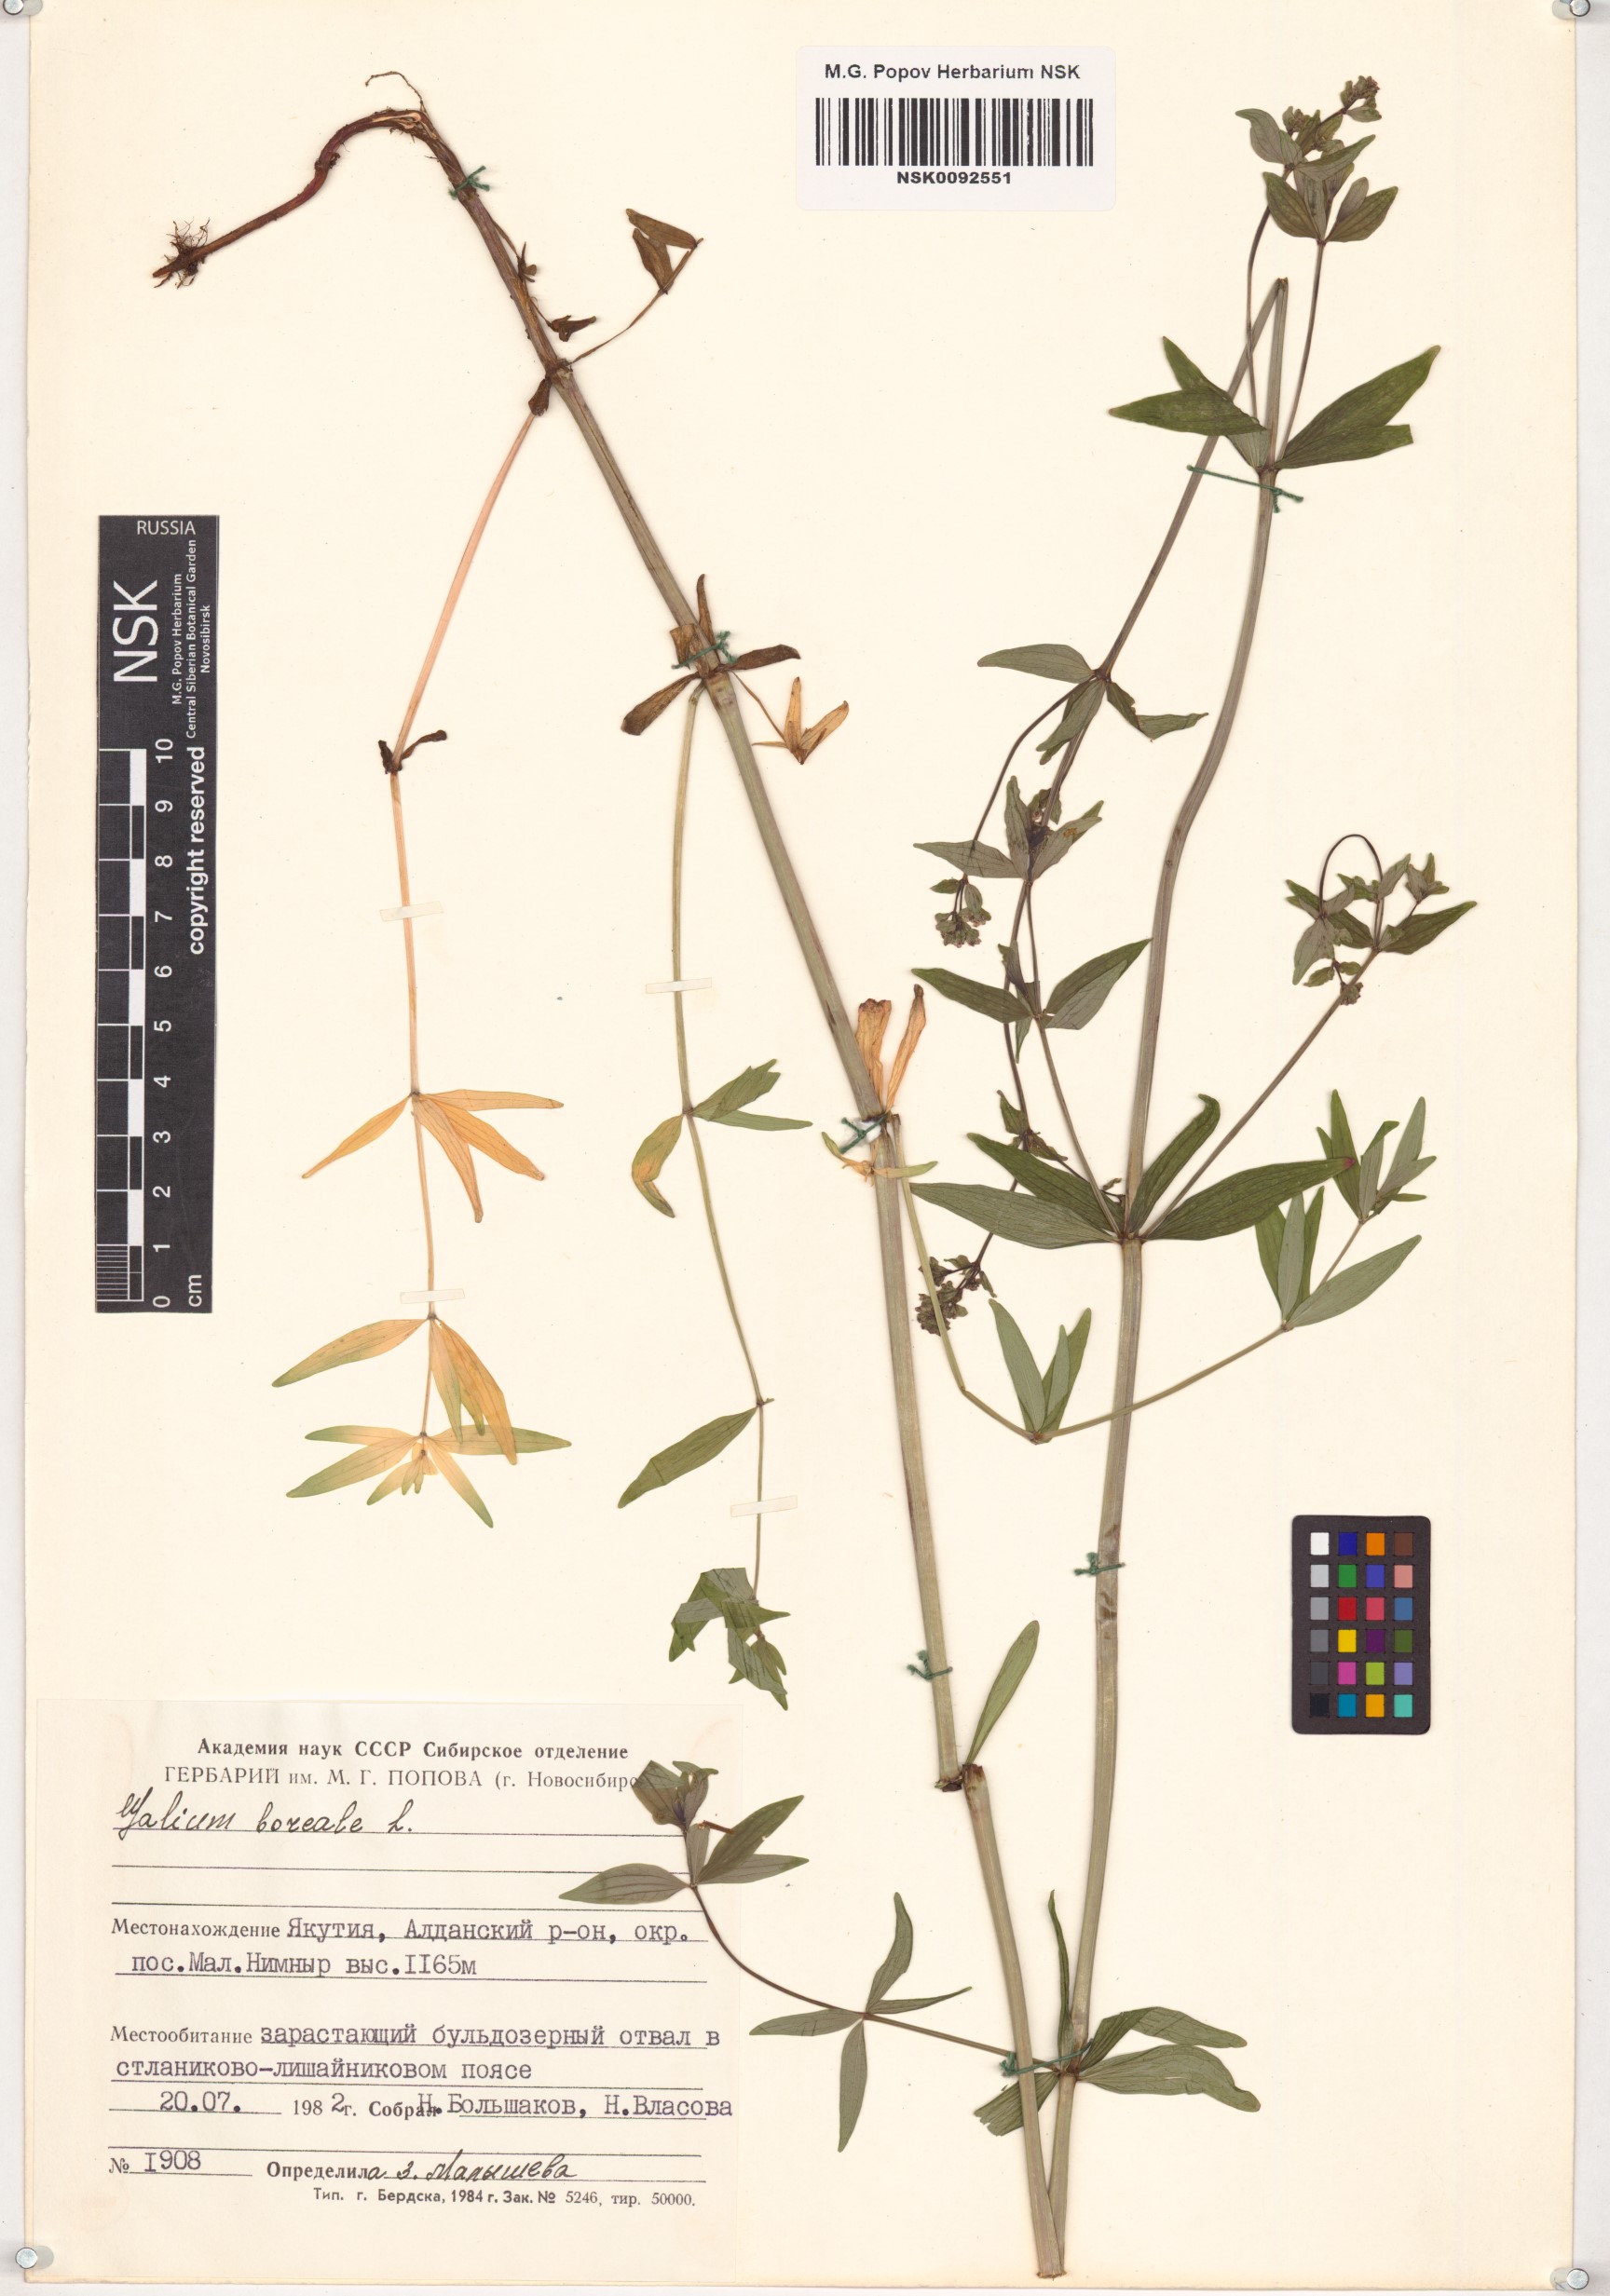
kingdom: Plantae
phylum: Tracheophyta
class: Magnoliopsida
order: Gentianales
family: Rubiaceae
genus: Galium
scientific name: Galium boreale
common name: Northern bedstraw
